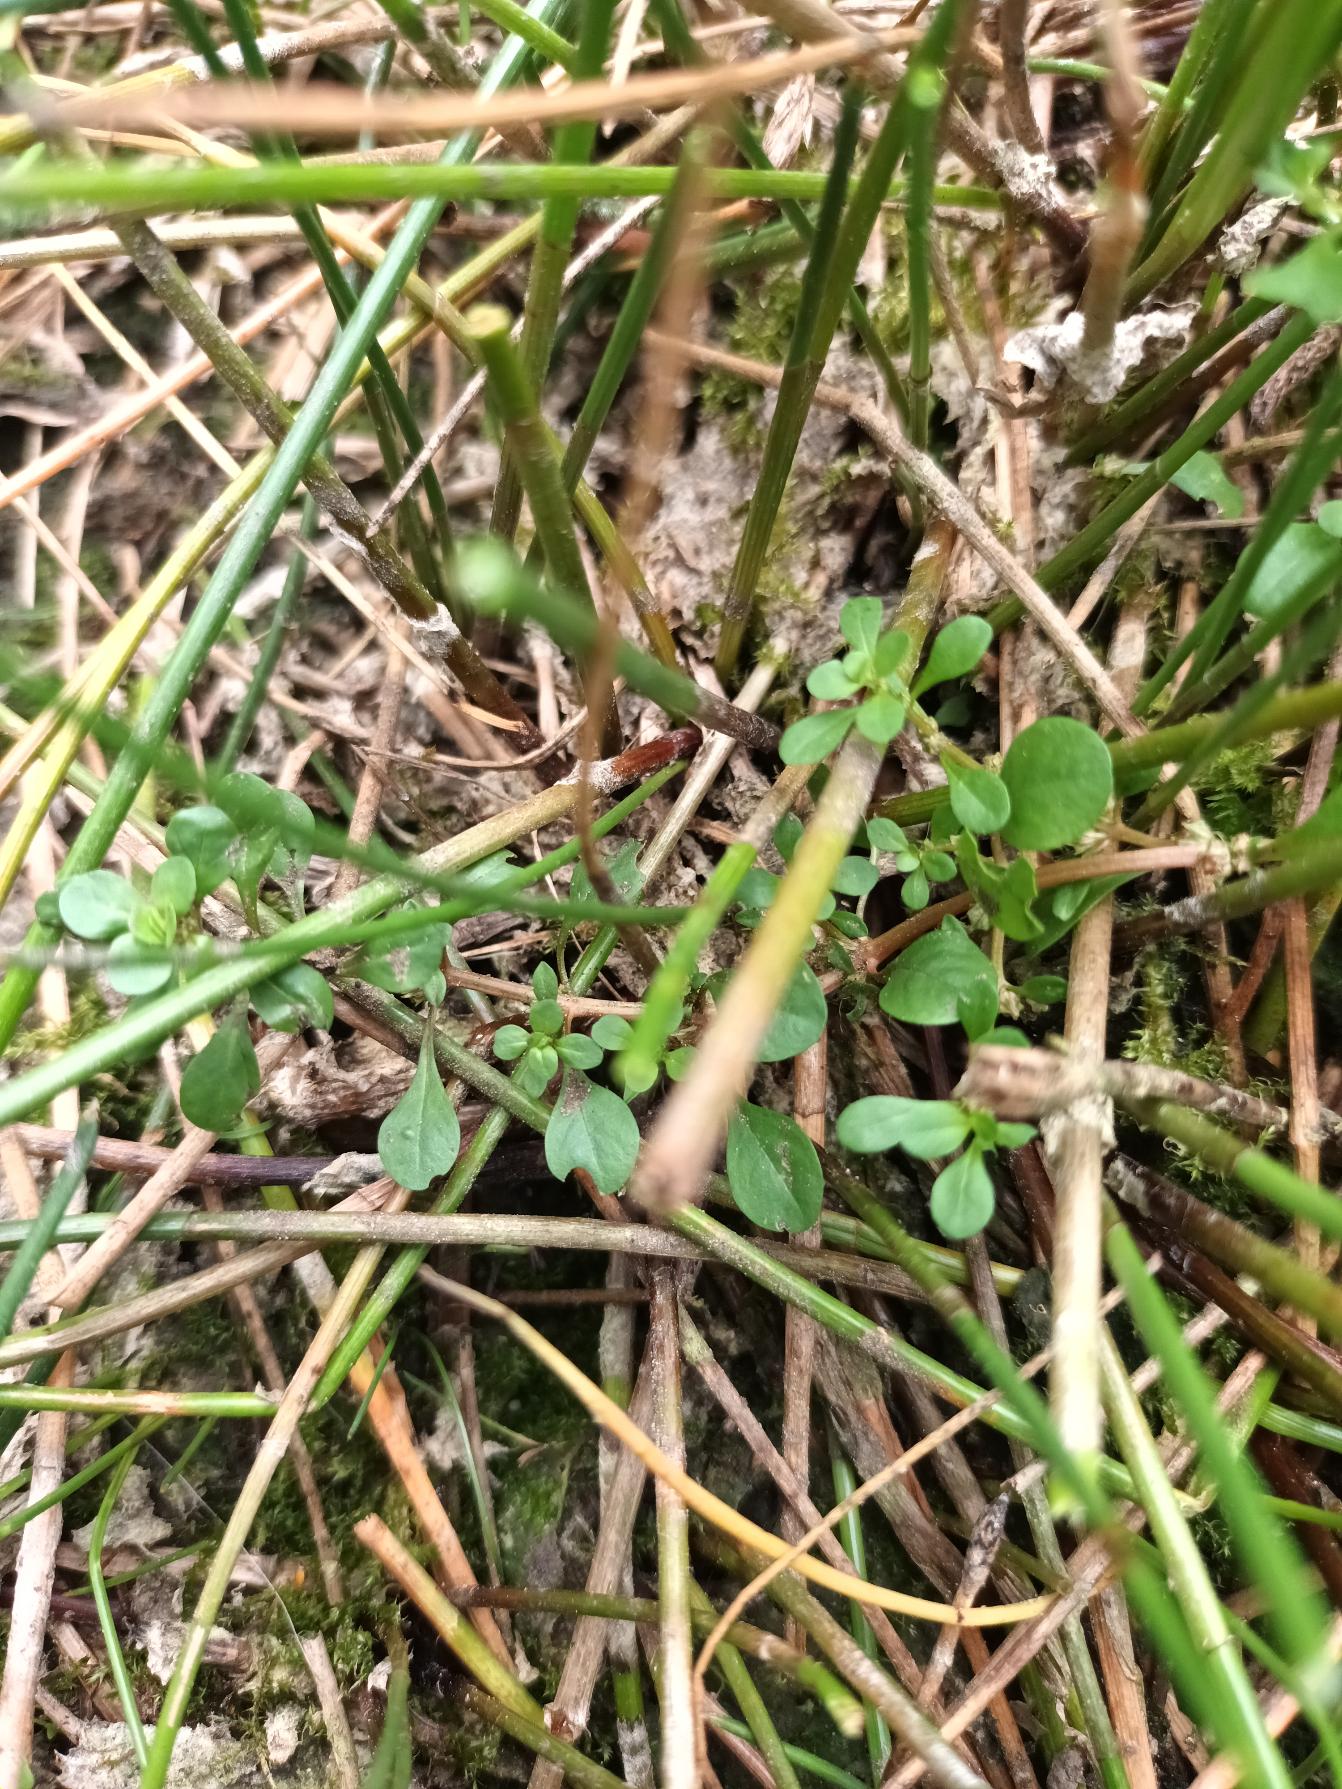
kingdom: Plantae
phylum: Tracheophyta
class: Magnoliopsida
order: Myrtales
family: Lythraceae
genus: Lythrum
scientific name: Lythrum portula
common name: Vandportulak
